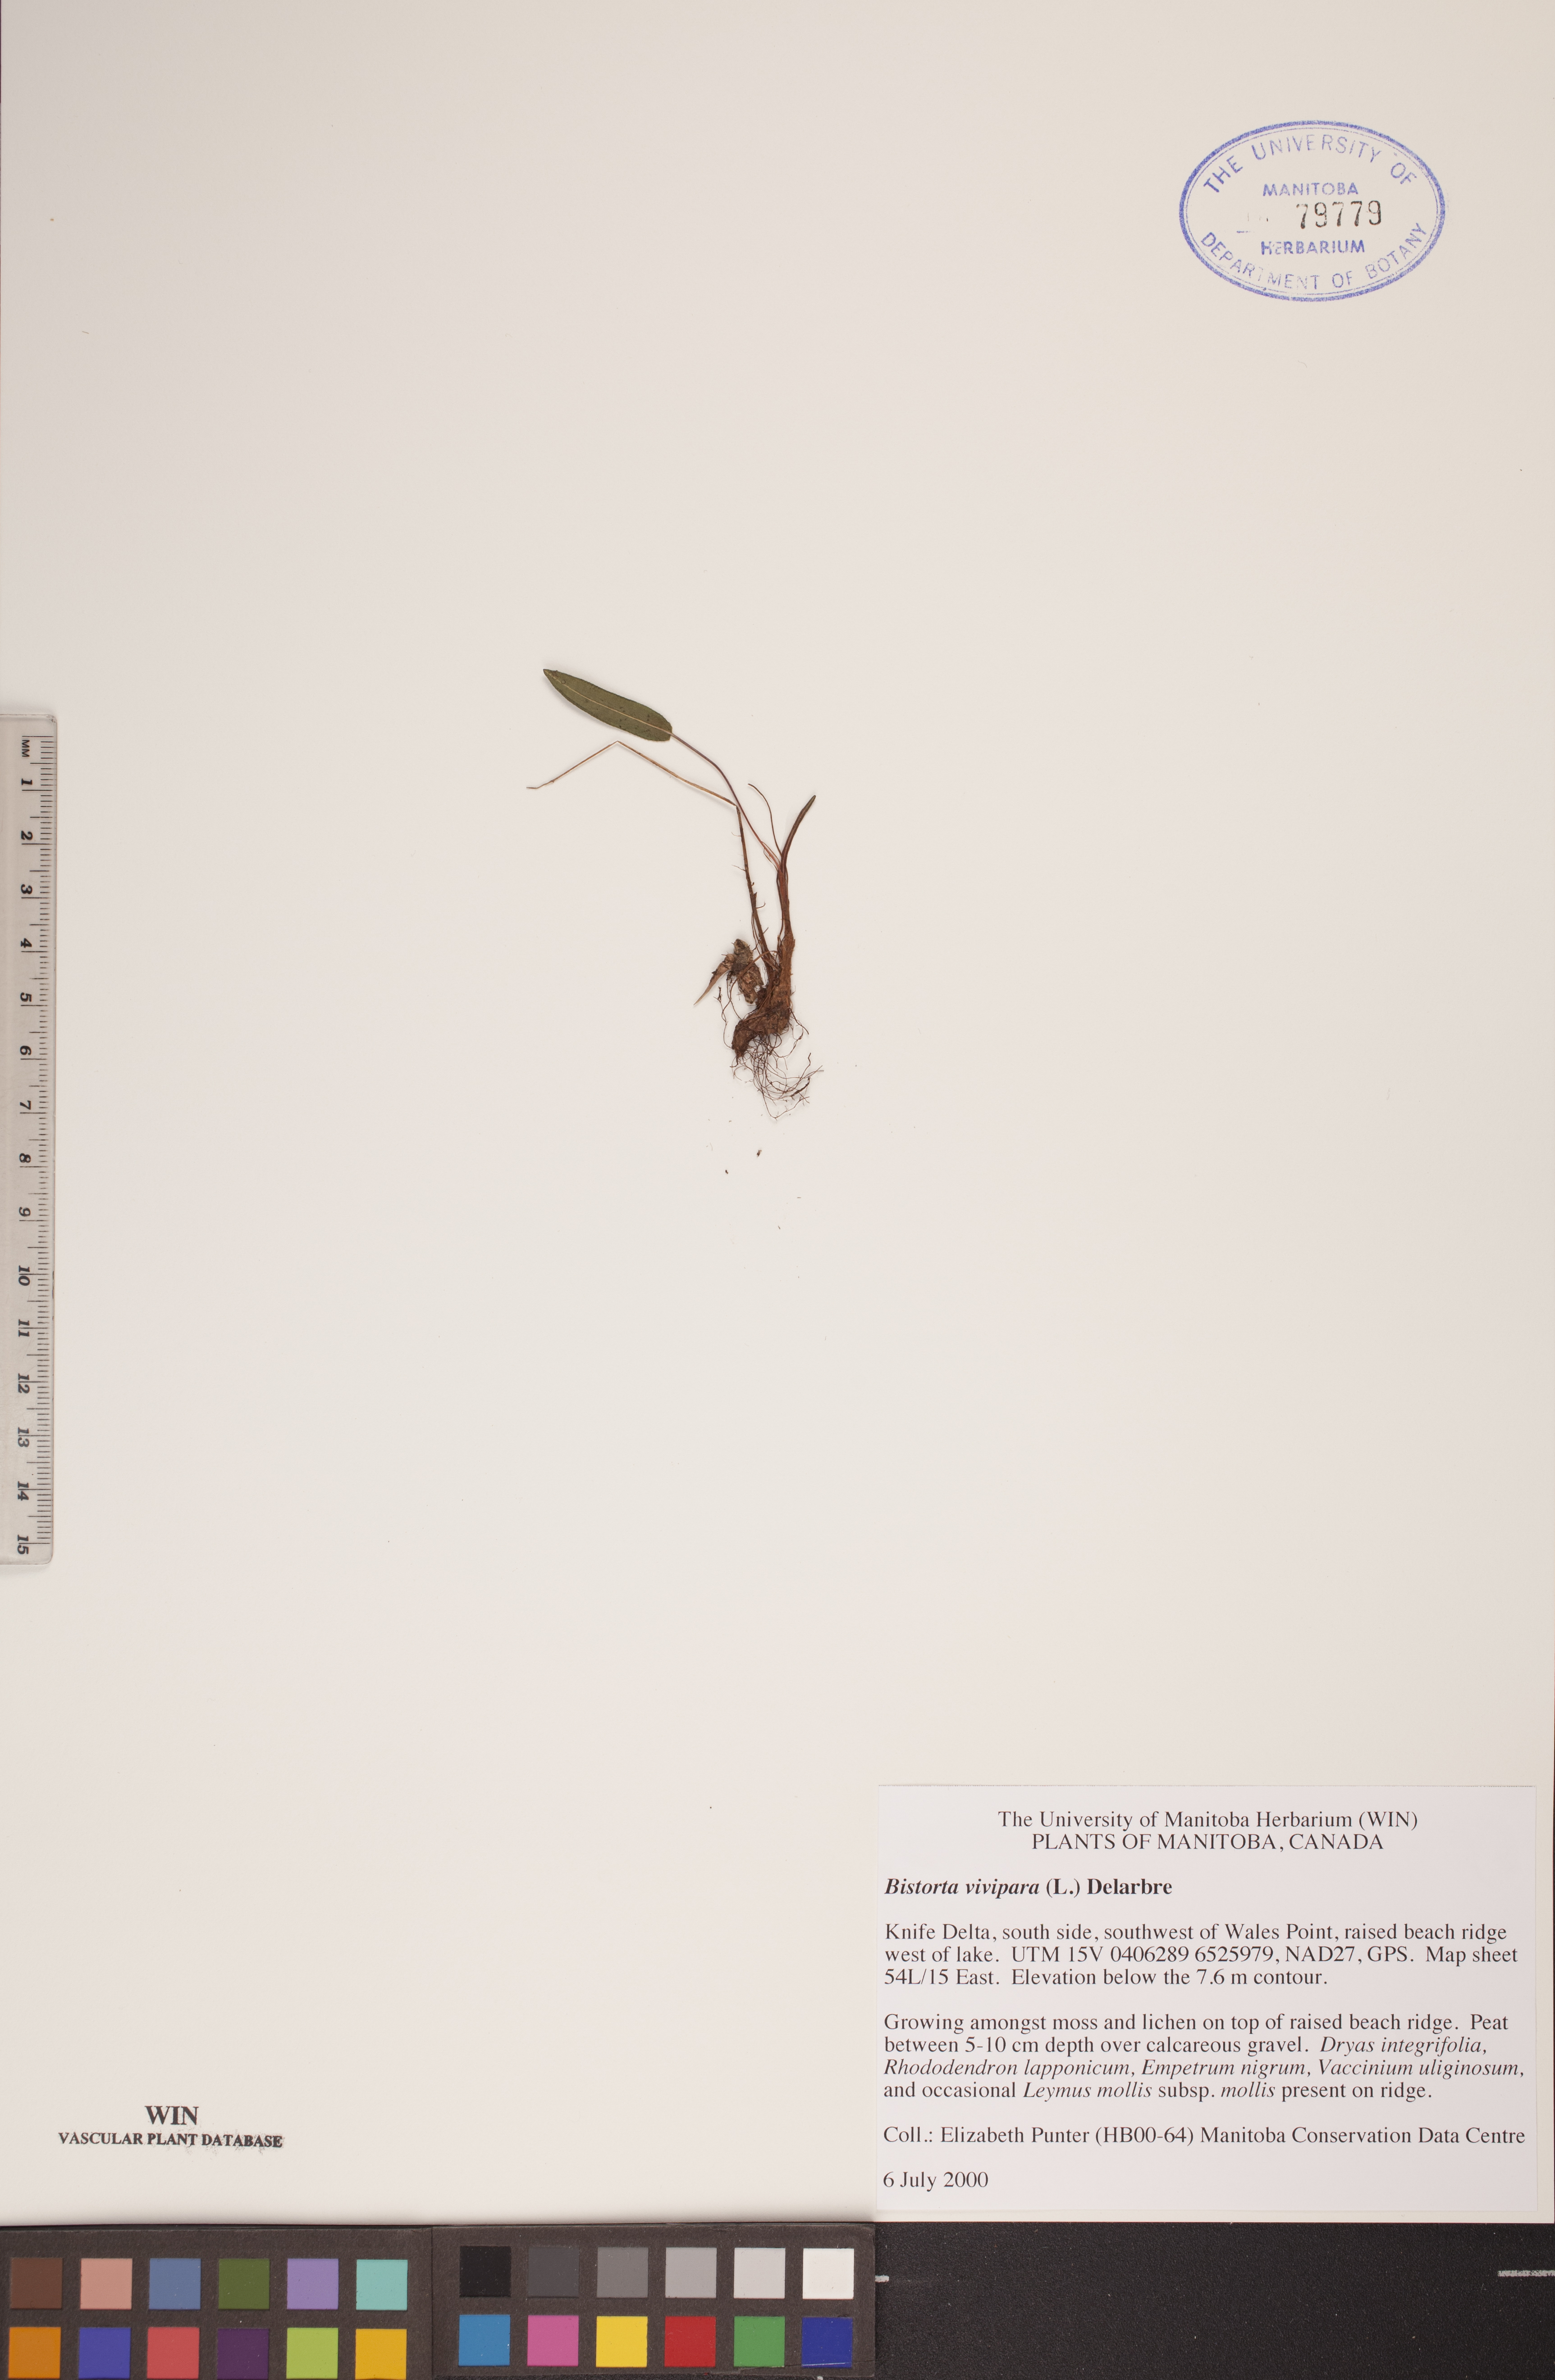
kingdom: Plantae
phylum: Tracheophyta
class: Magnoliopsida
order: Caryophyllales
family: Polygonaceae
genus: Bistorta
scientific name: Bistorta vivipara
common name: Alpine bistort
